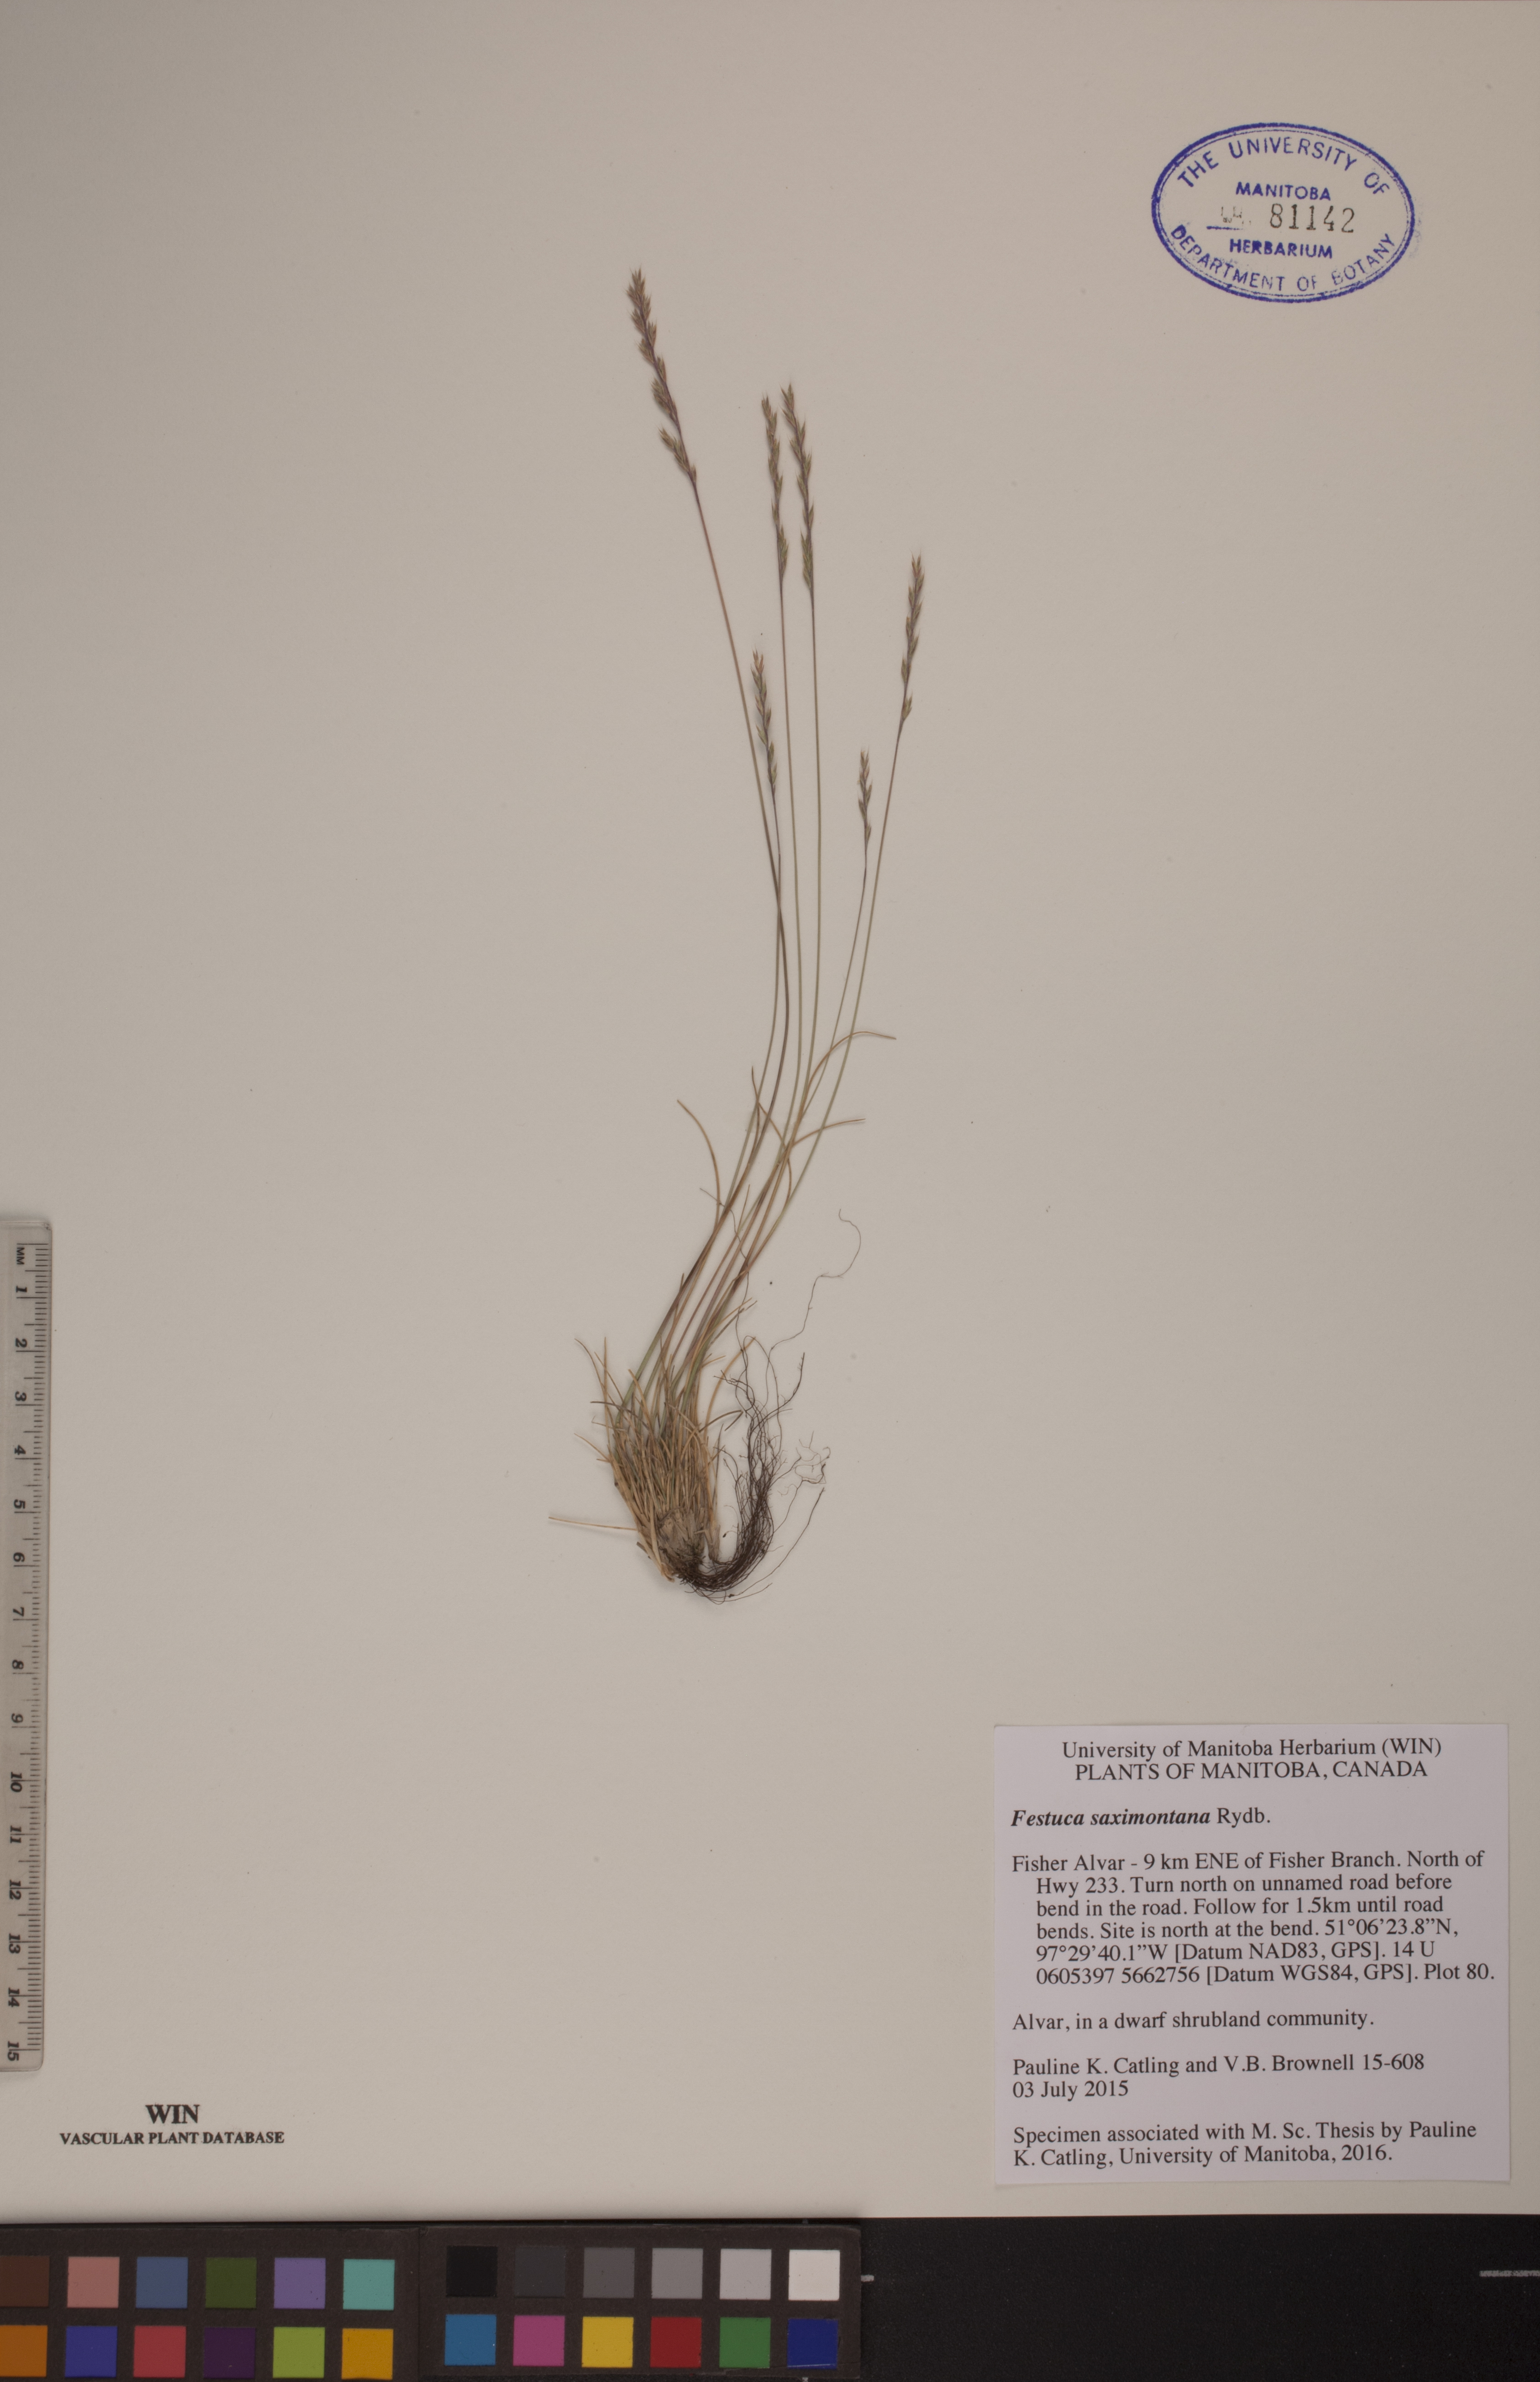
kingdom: Plantae
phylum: Tracheophyta
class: Liliopsida
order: Poales
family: Poaceae
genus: Festuca
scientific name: Festuca saximontana
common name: Mountain fescue
